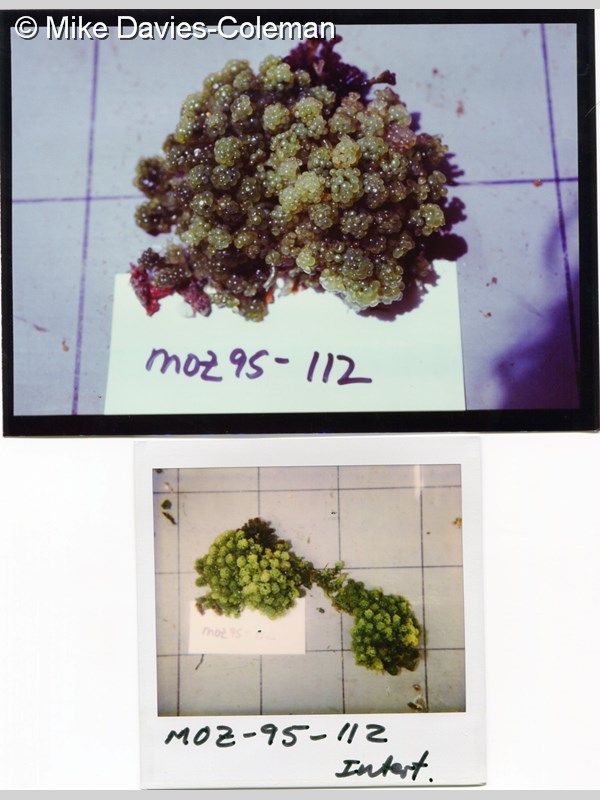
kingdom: Plantae
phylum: Chlorophyta
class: Ulvophyceae
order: Bryopsidales
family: Caulerpaceae
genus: Caulerpa
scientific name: Caulerpa racemosa
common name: Green grape algae
